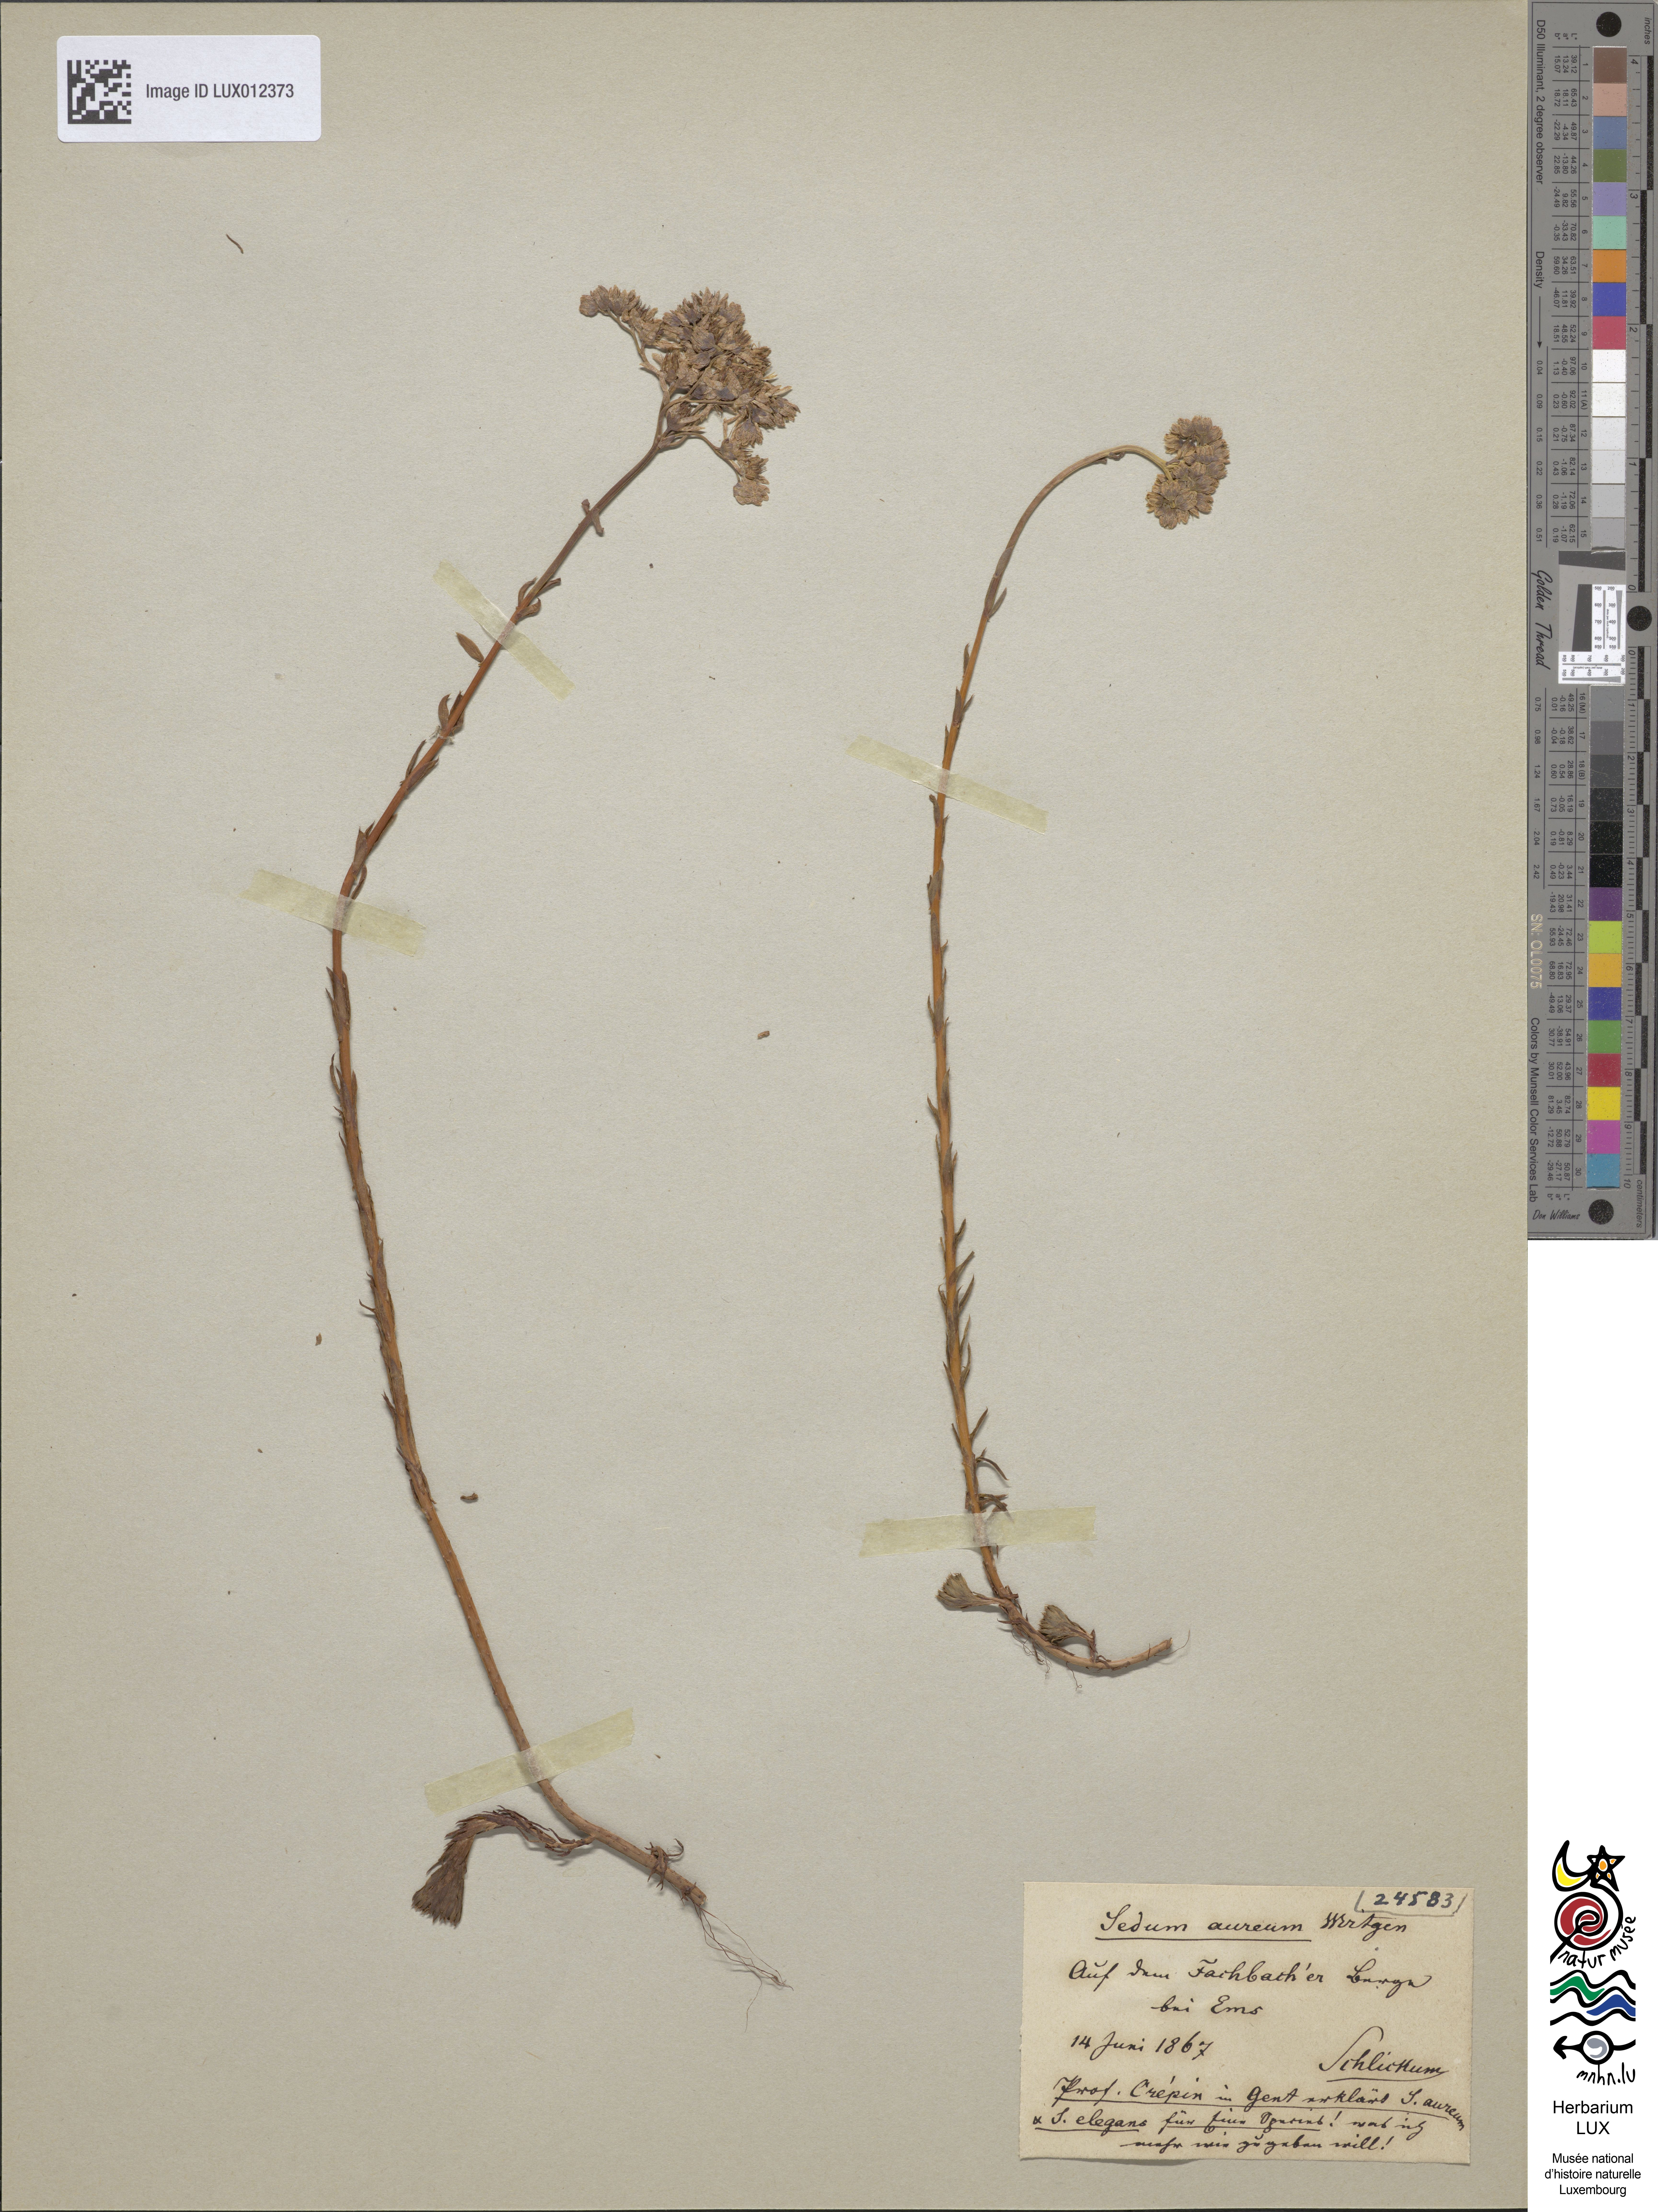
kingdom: Plantae
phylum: Tracheophyta
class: Magnoliopsida
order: Saxifragales
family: Crassulaceae
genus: Petrosedum
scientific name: Petrosedum forsterianum
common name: Forster's stonecrop
